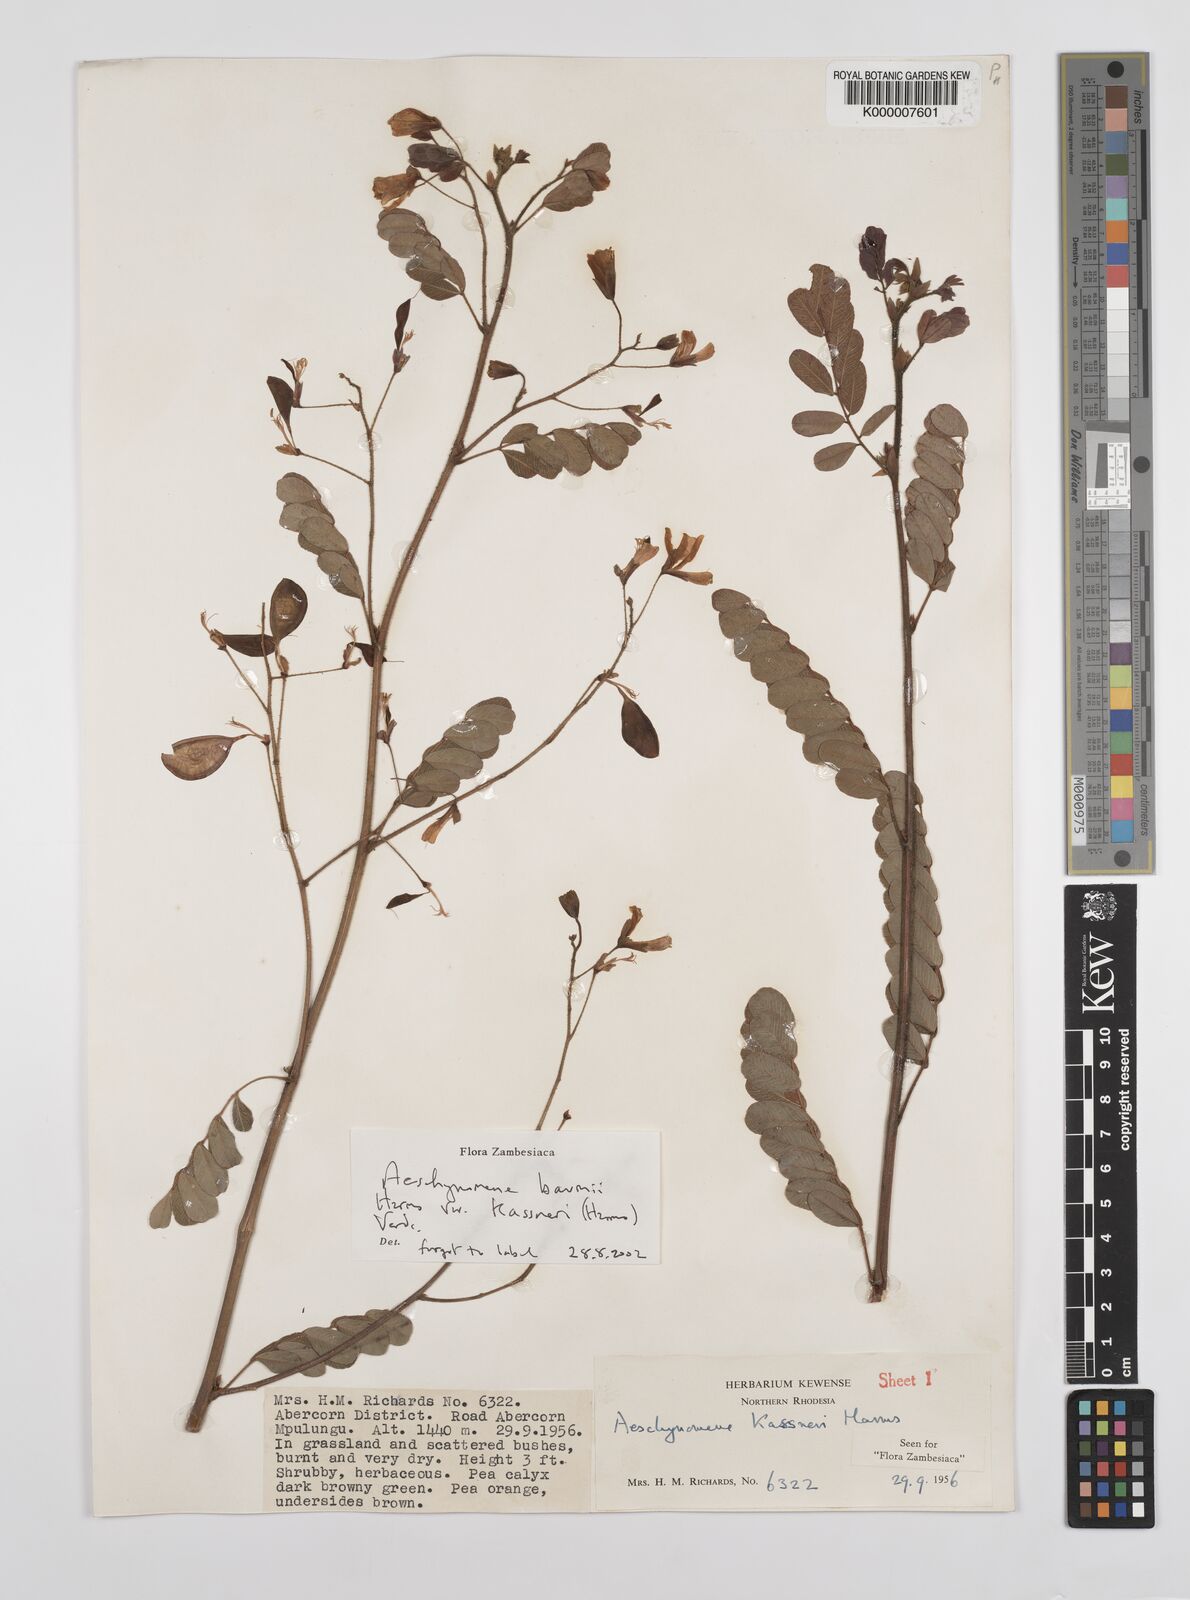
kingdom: Plantae
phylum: Tracheophyta
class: Magnoliopsida
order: Fabales
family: Fabaceae
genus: Aeschynomene
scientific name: Aeschynomene baumii
